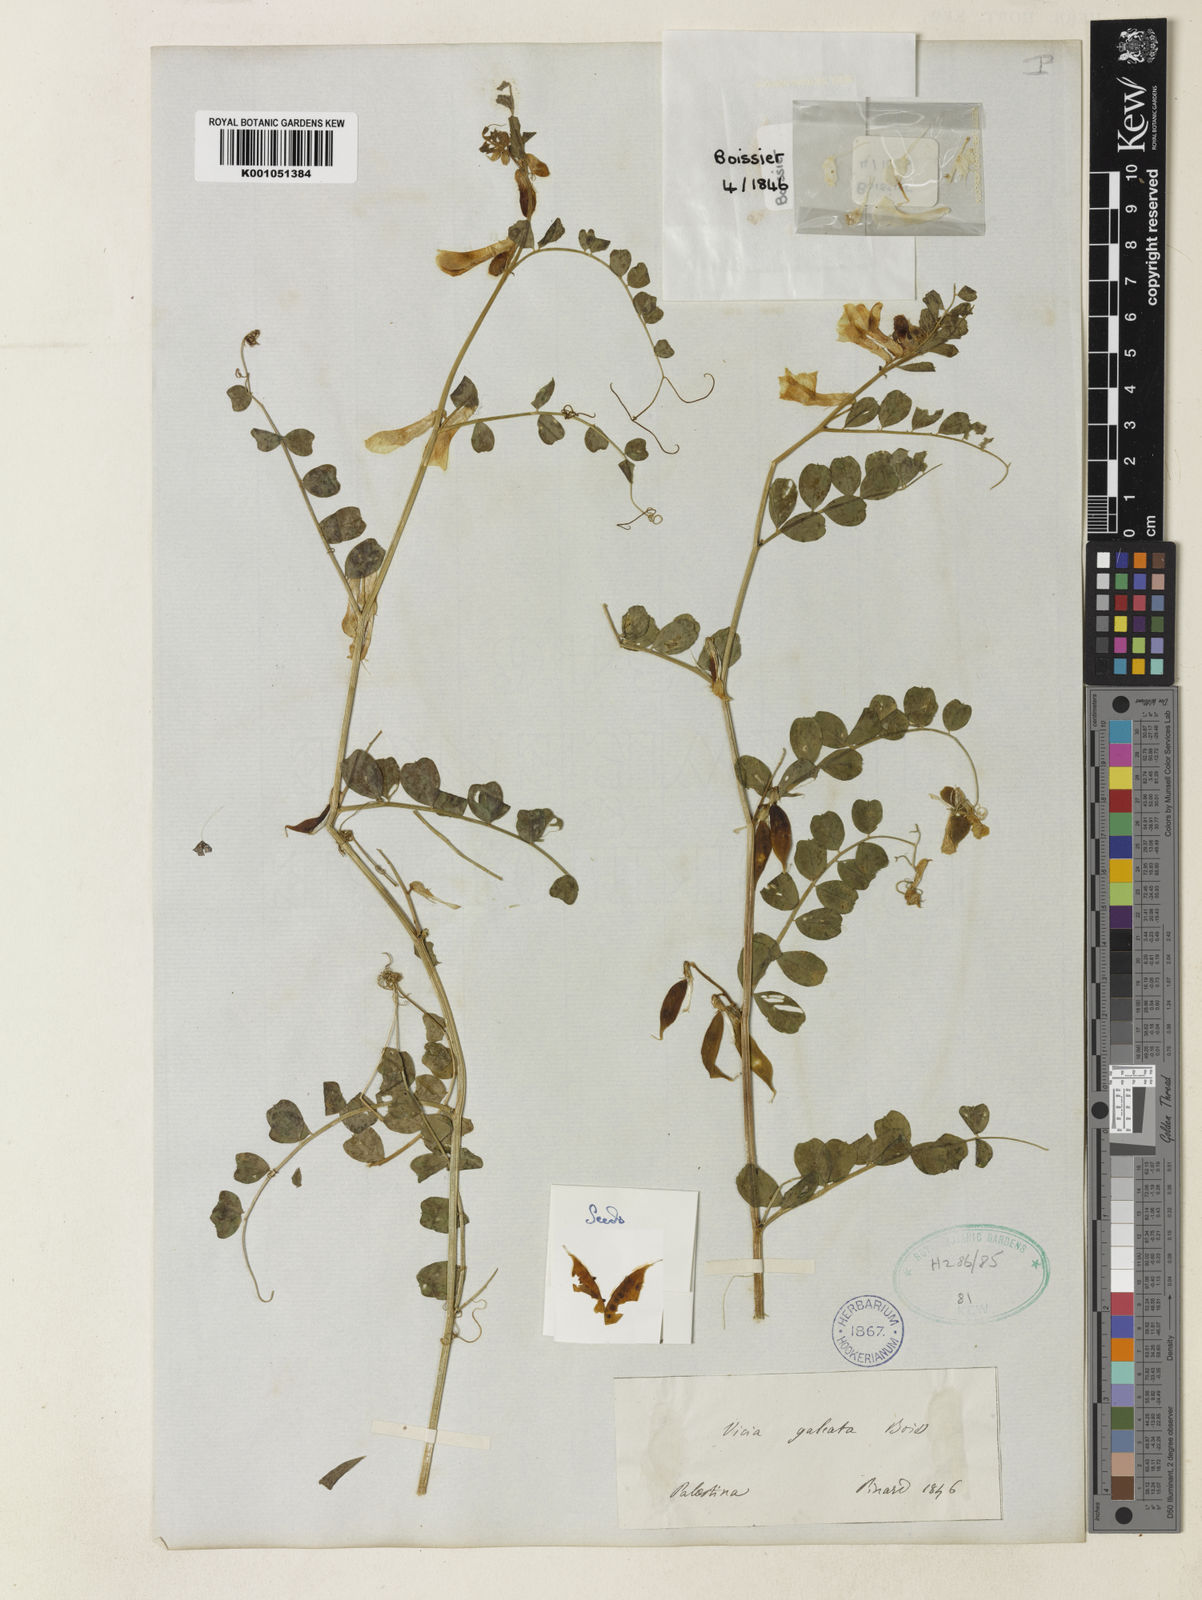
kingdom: Plantae
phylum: Tracheophyta
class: Magnoliopsida
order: Fabales
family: Fabaceae
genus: Vicia
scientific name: Vicia galeata
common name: Helmeted vetch
